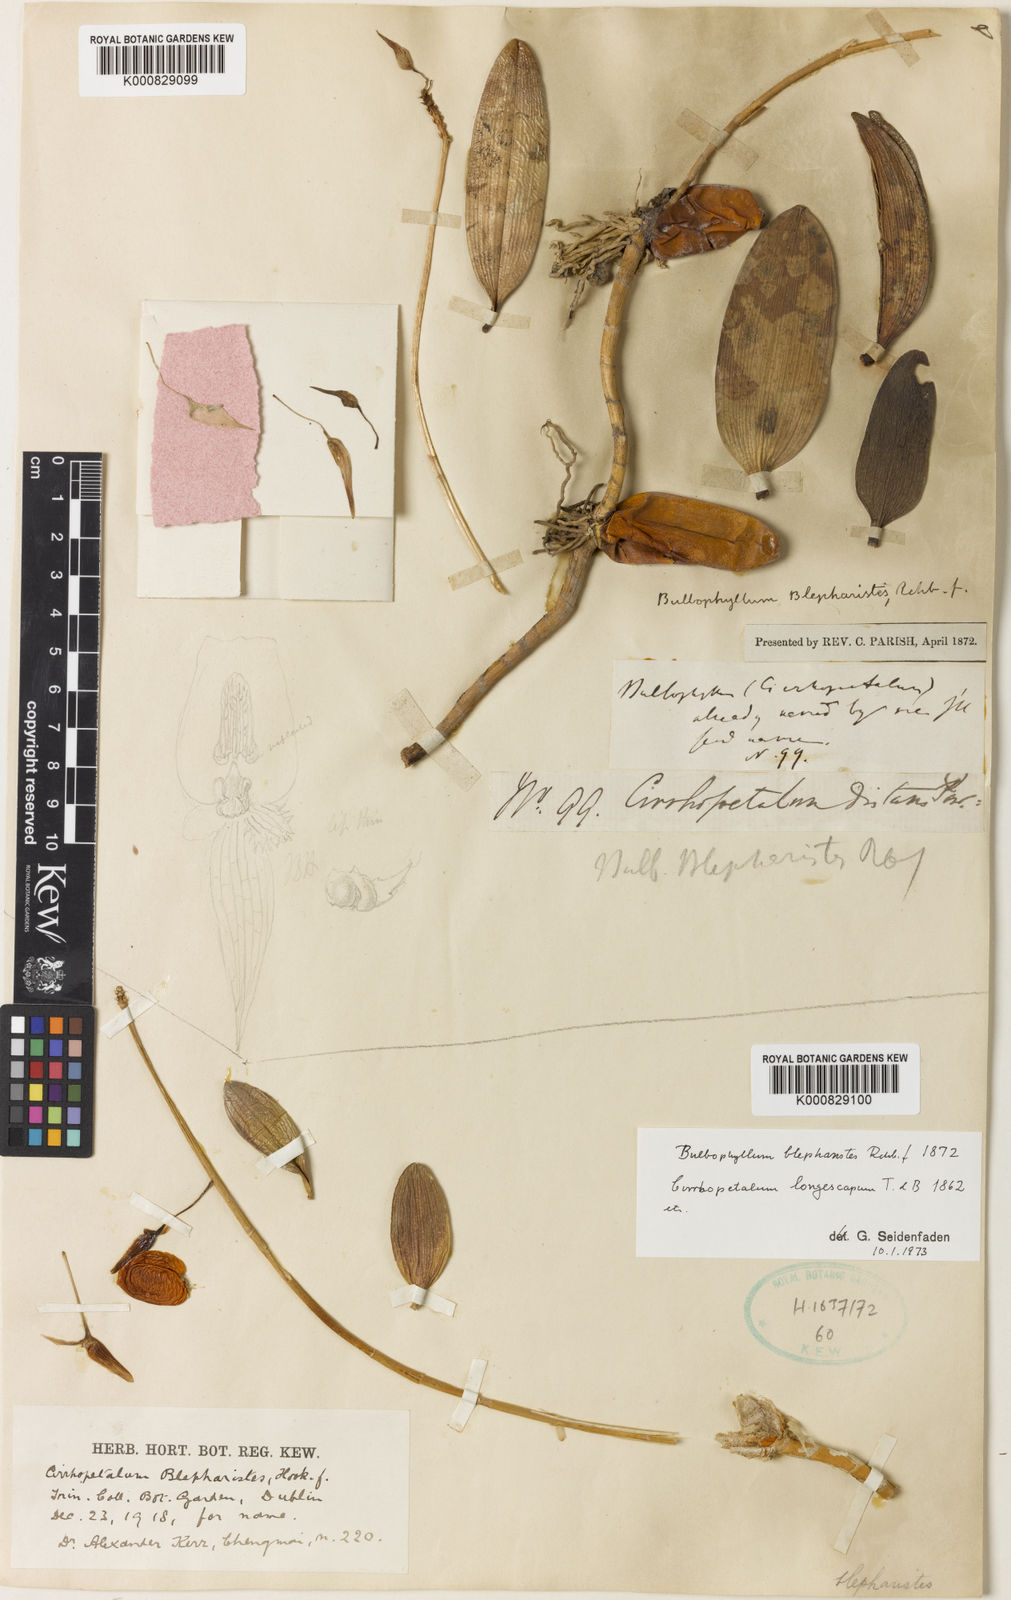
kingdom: Plantae
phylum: Tracheophyta
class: Liliopsida
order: Asparagales
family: Orchidaceae
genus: Bulbophyllum
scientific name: Bulbophyllum blepharistes
